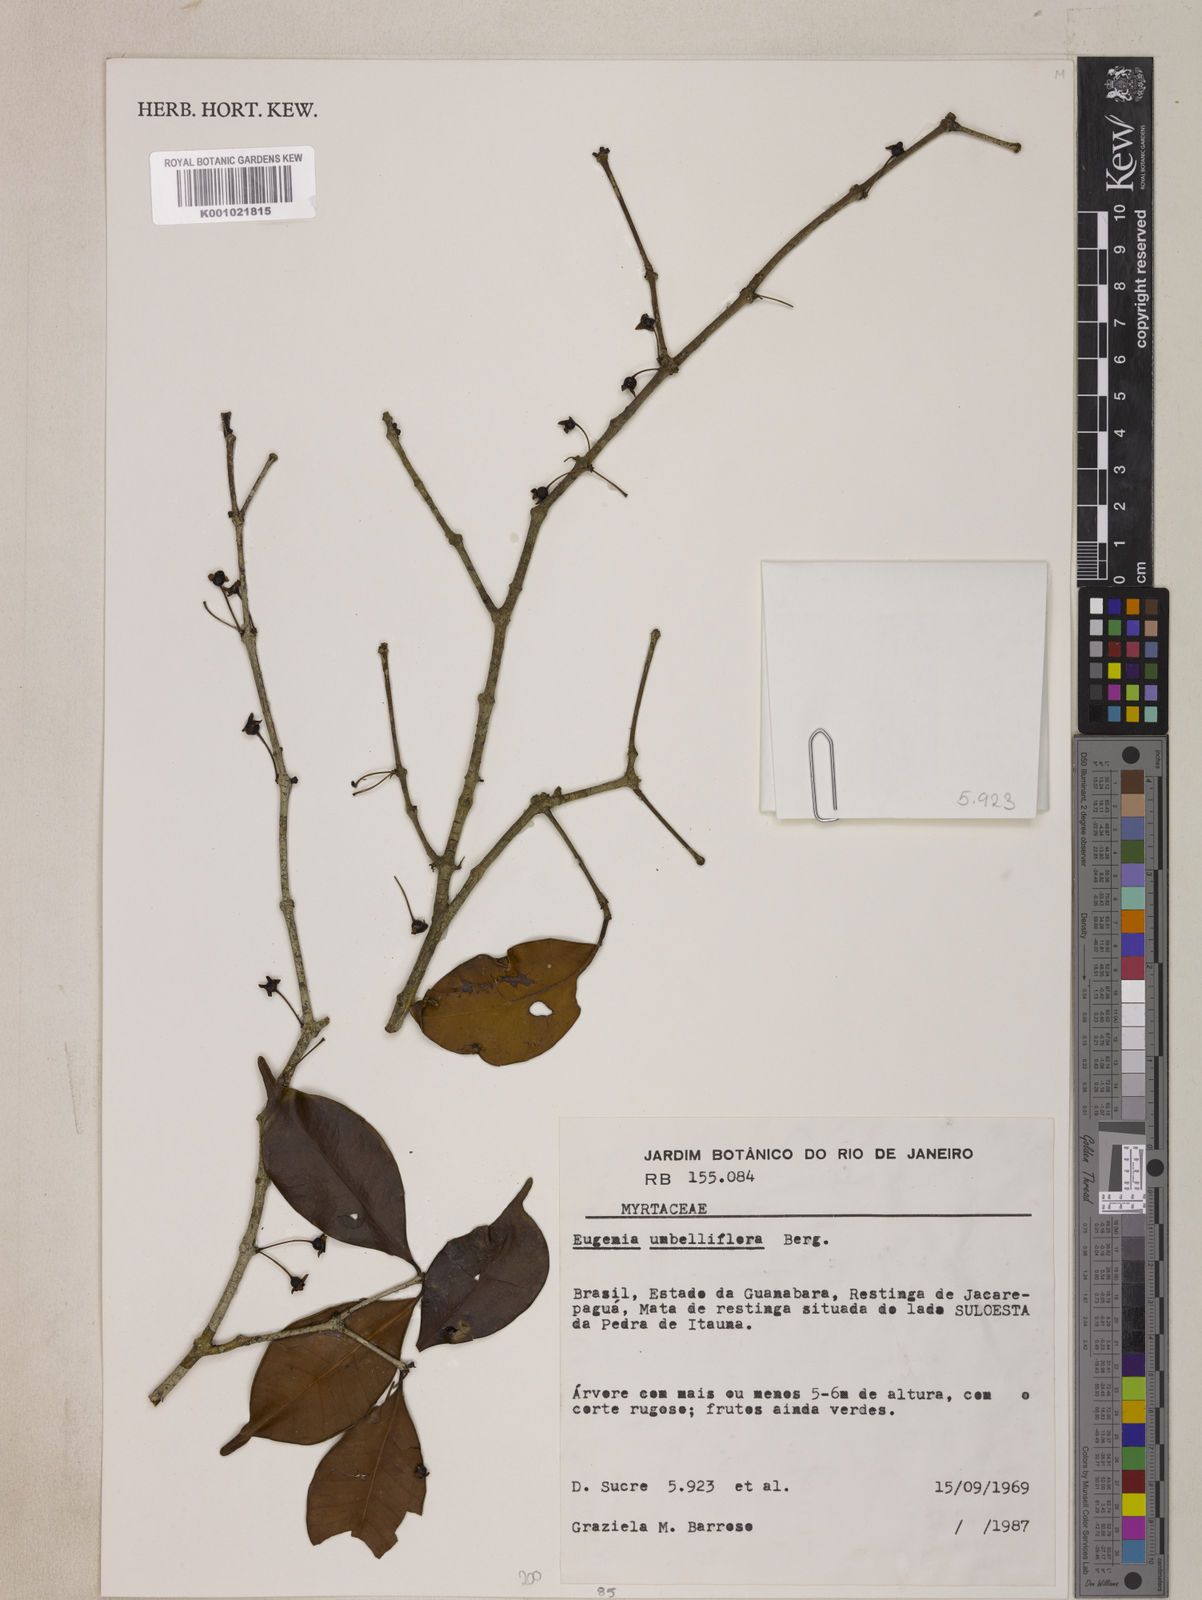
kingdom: Plantae
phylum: Tracheophyta
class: Magnoliopsida
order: Myrtales
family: Myrtaceae
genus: Eugenia
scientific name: Eugenia excelsa
